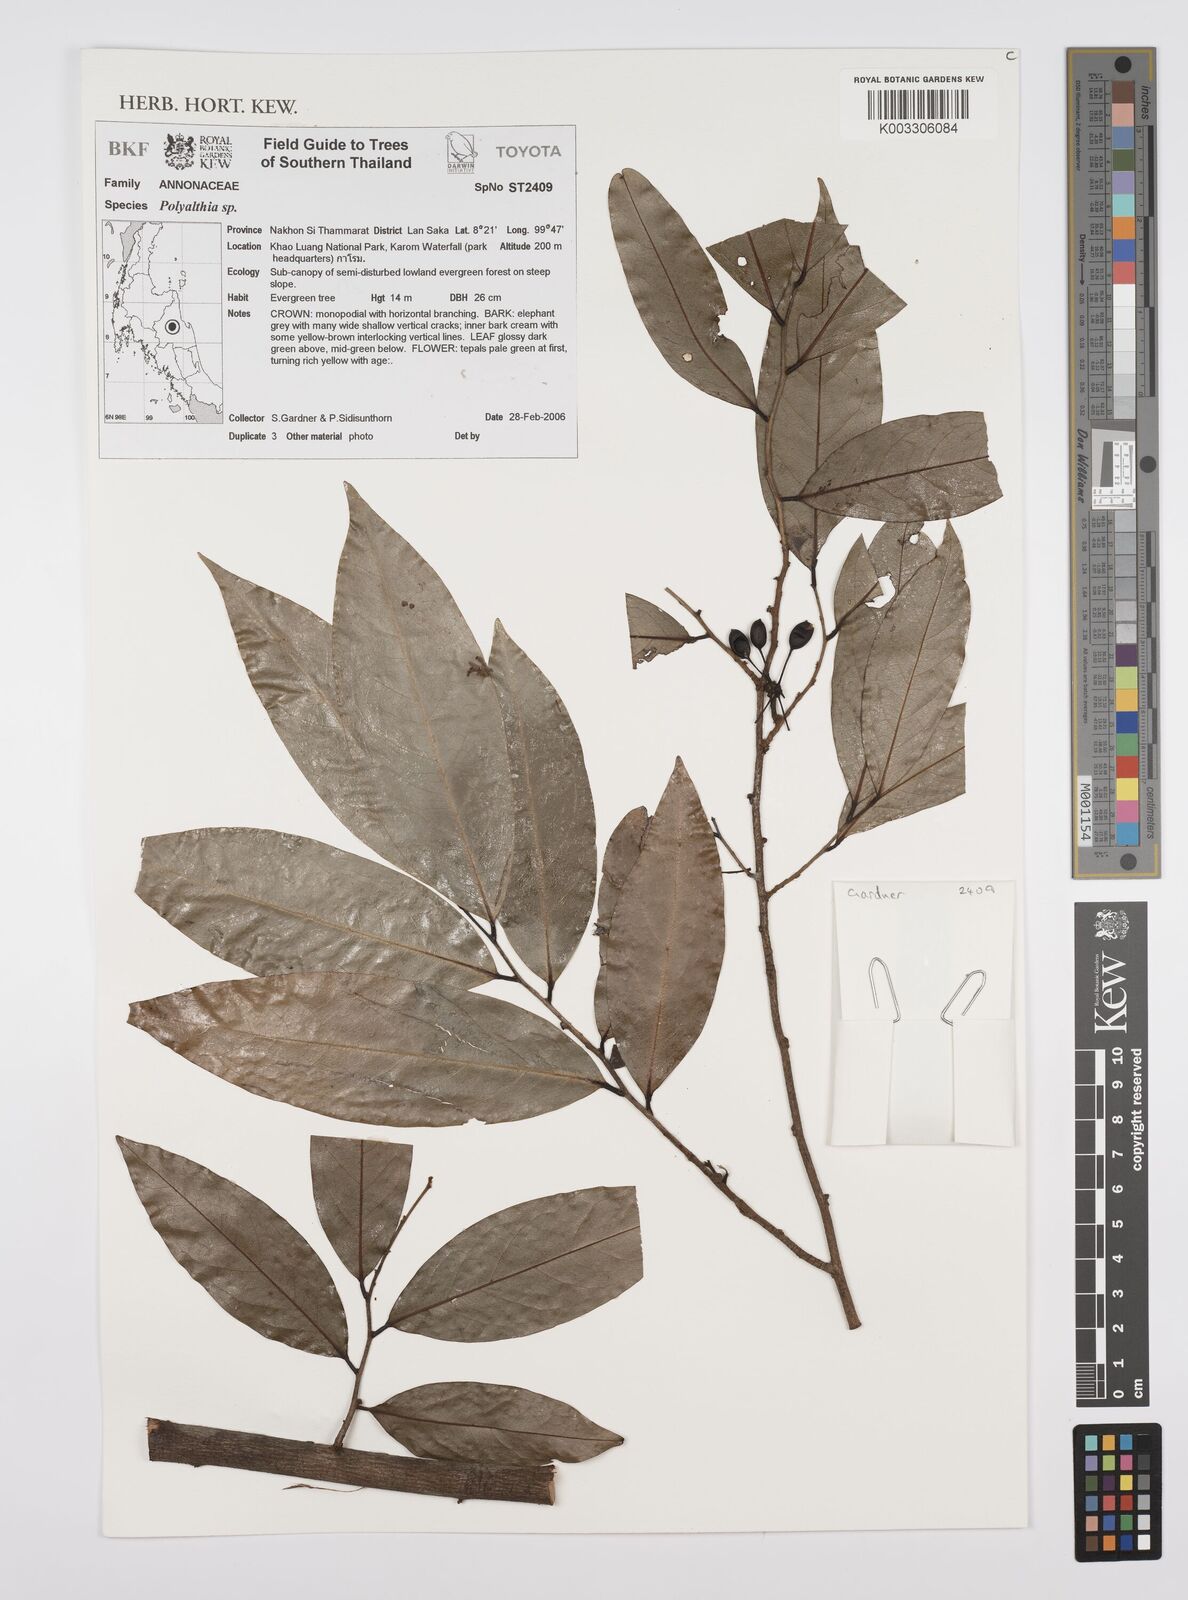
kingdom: Plantae
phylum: Tracheophyta
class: Magnoliopsida
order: Magnoliales
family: Annonaceae
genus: Huberantha
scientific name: Huberantha
